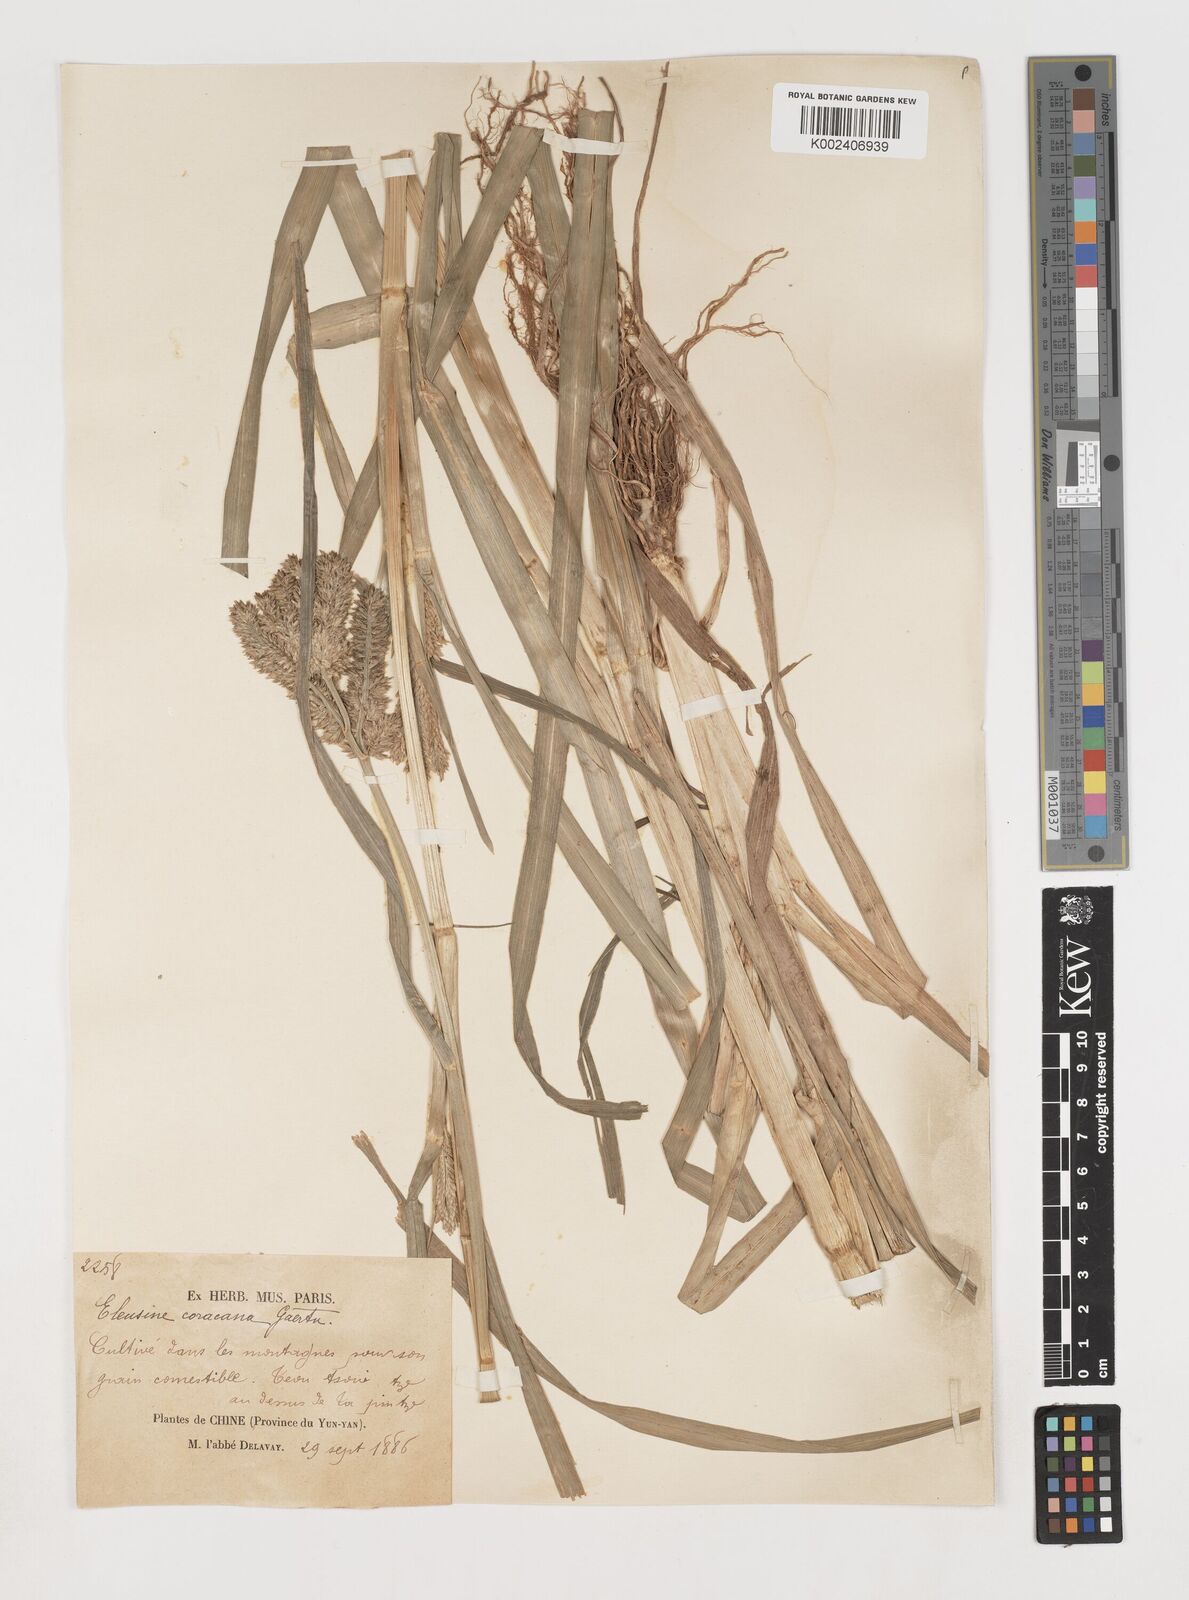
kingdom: Plantae
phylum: Tracheophyta
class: Liliopsida
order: Poales
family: Poaceae
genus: Eleusine
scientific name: Eleusine coracana
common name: Finger millet
